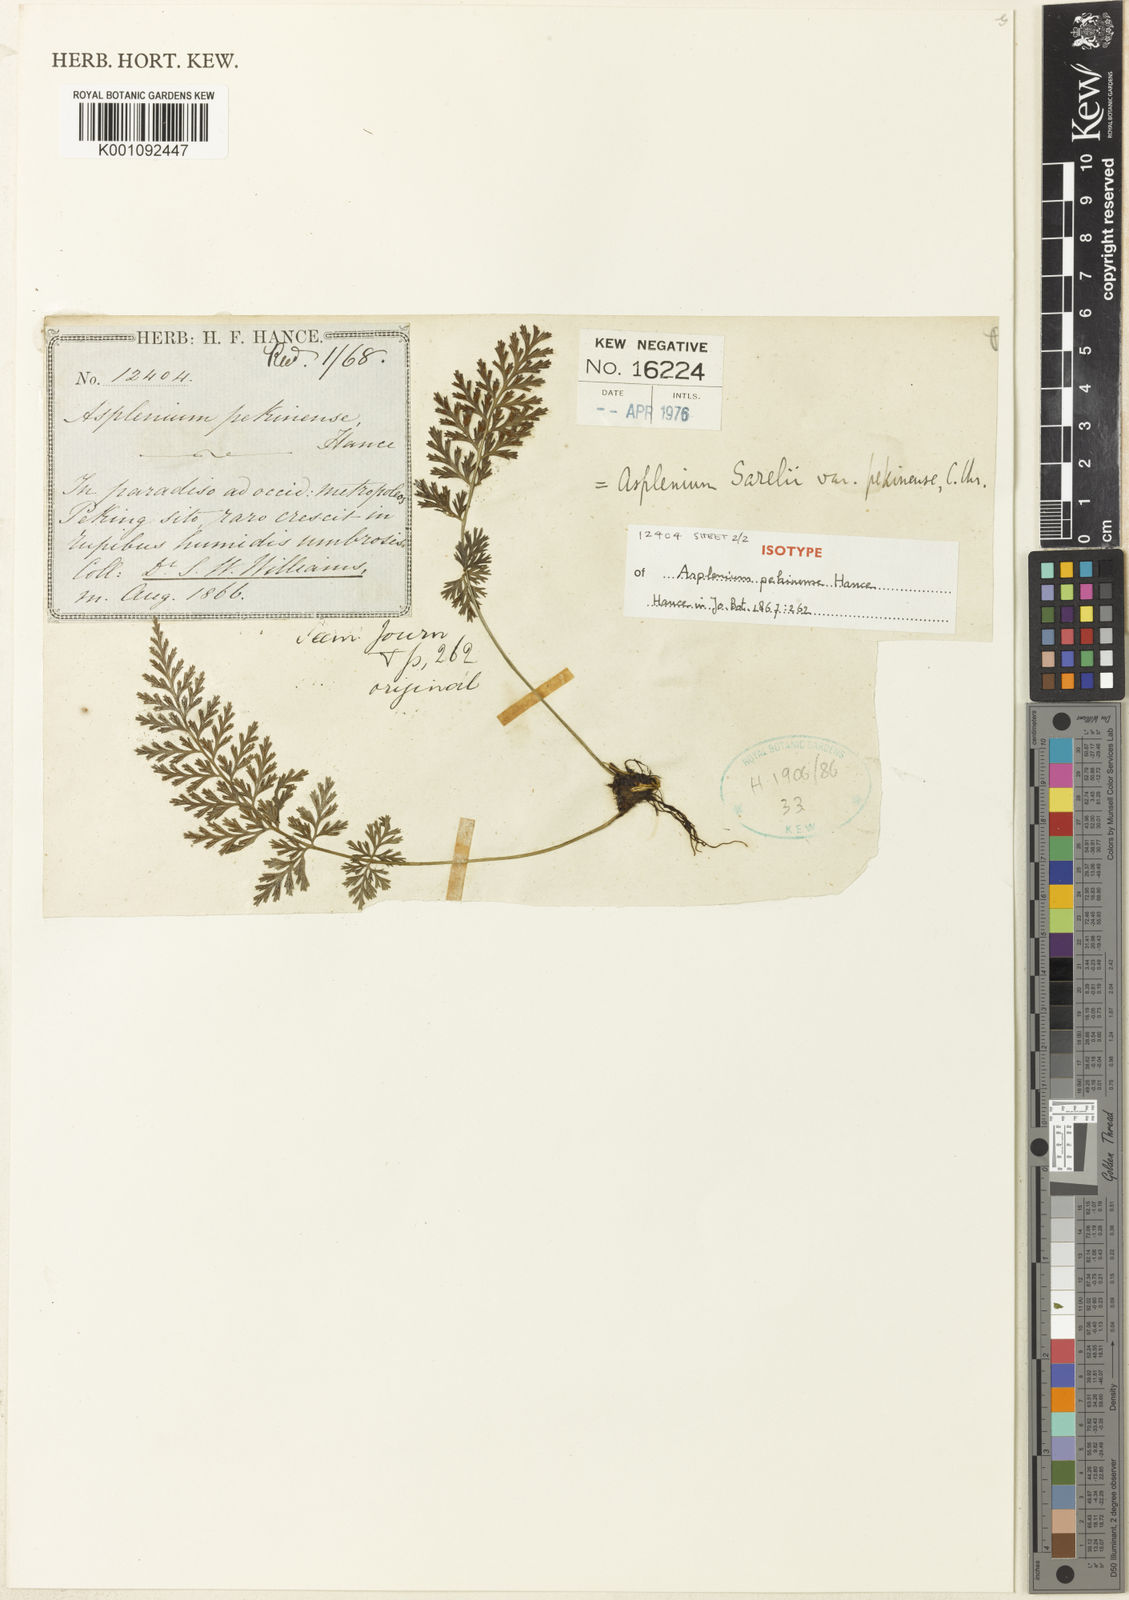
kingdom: Plantae
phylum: Tracheophyta
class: Polypodiopsida
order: Polypodiales
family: Aspleniaceae
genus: Asplenium
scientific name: Asplenium sarelii
